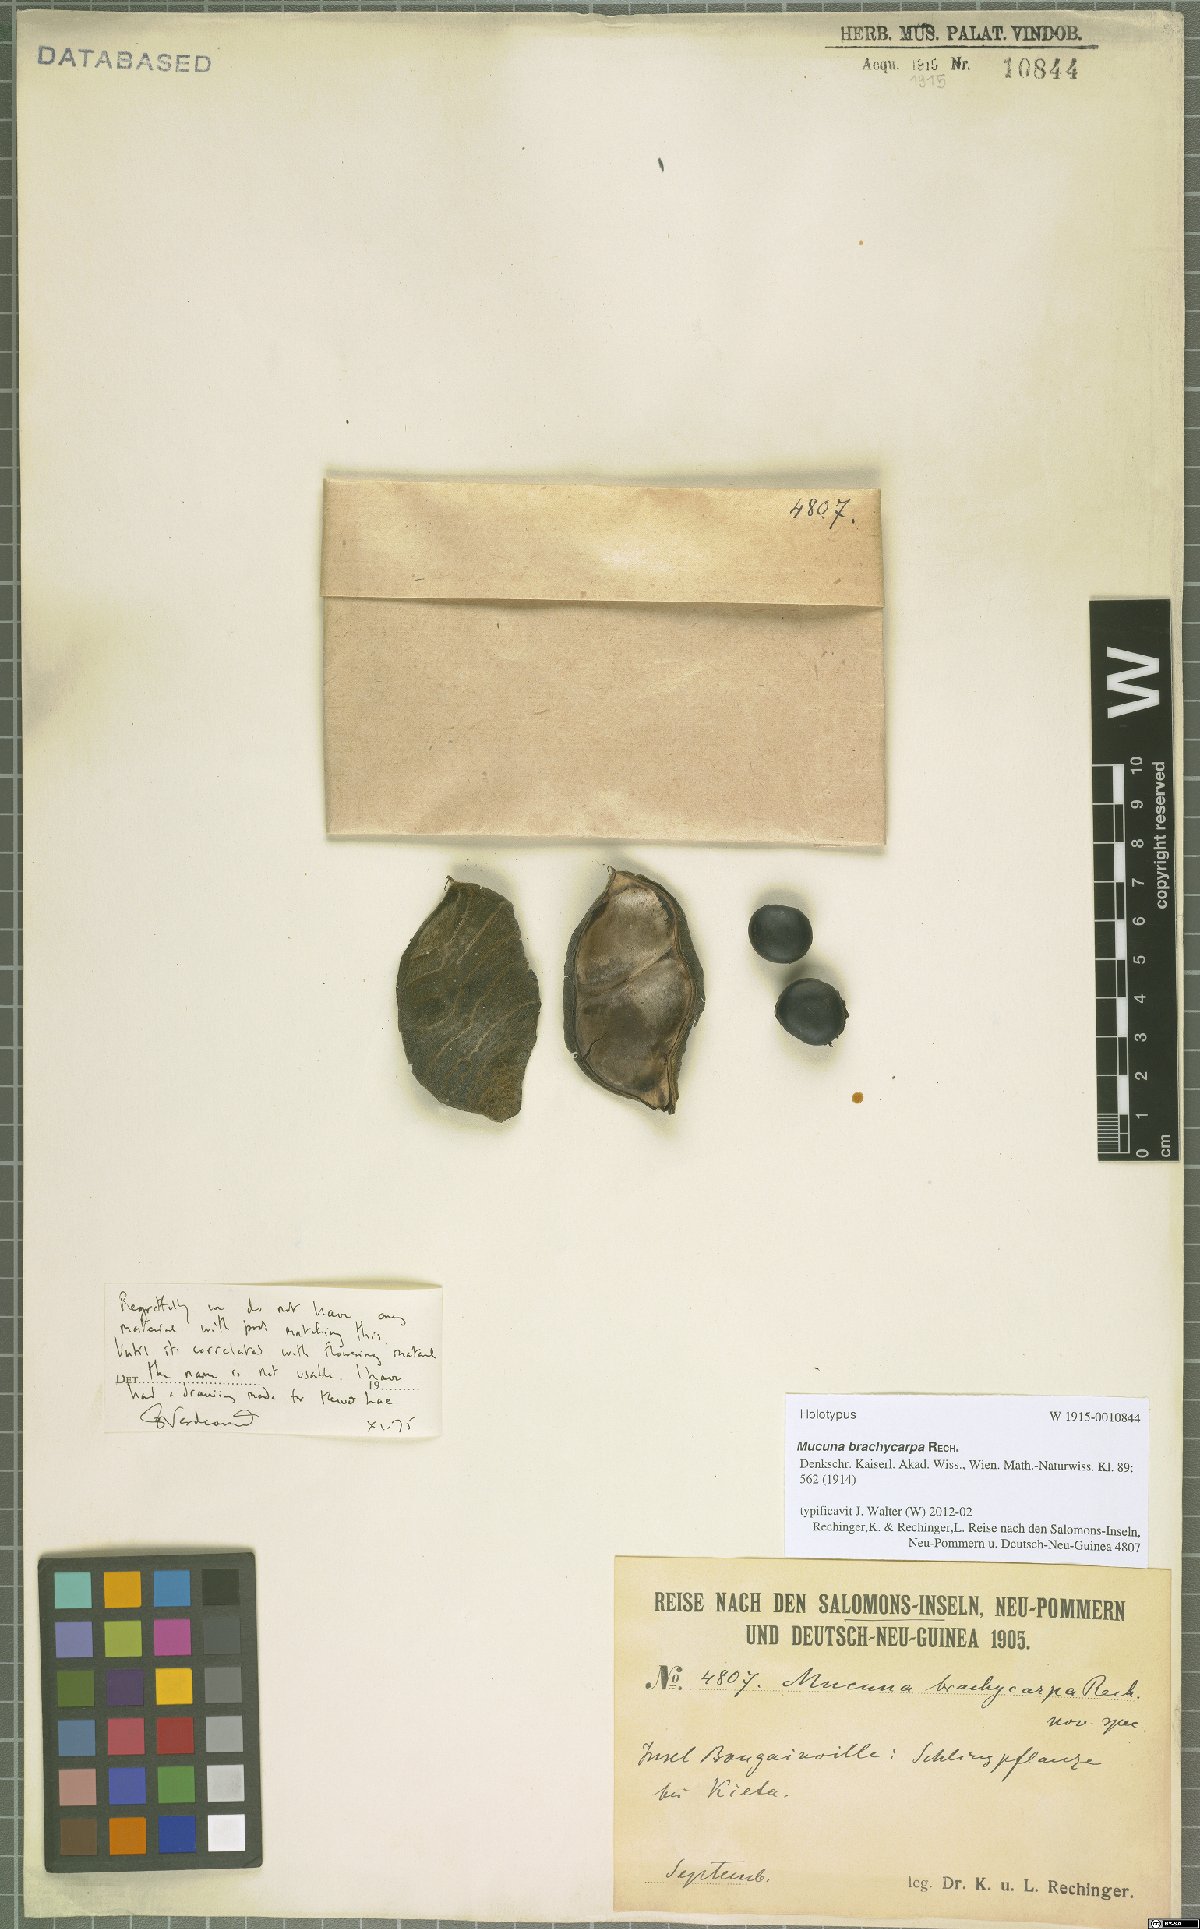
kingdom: Plantae
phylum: Tracheophyta
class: Magnoliopsida
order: Fabales
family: Fabaceae
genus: Mucuna
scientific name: Mucuna brachycarpa
